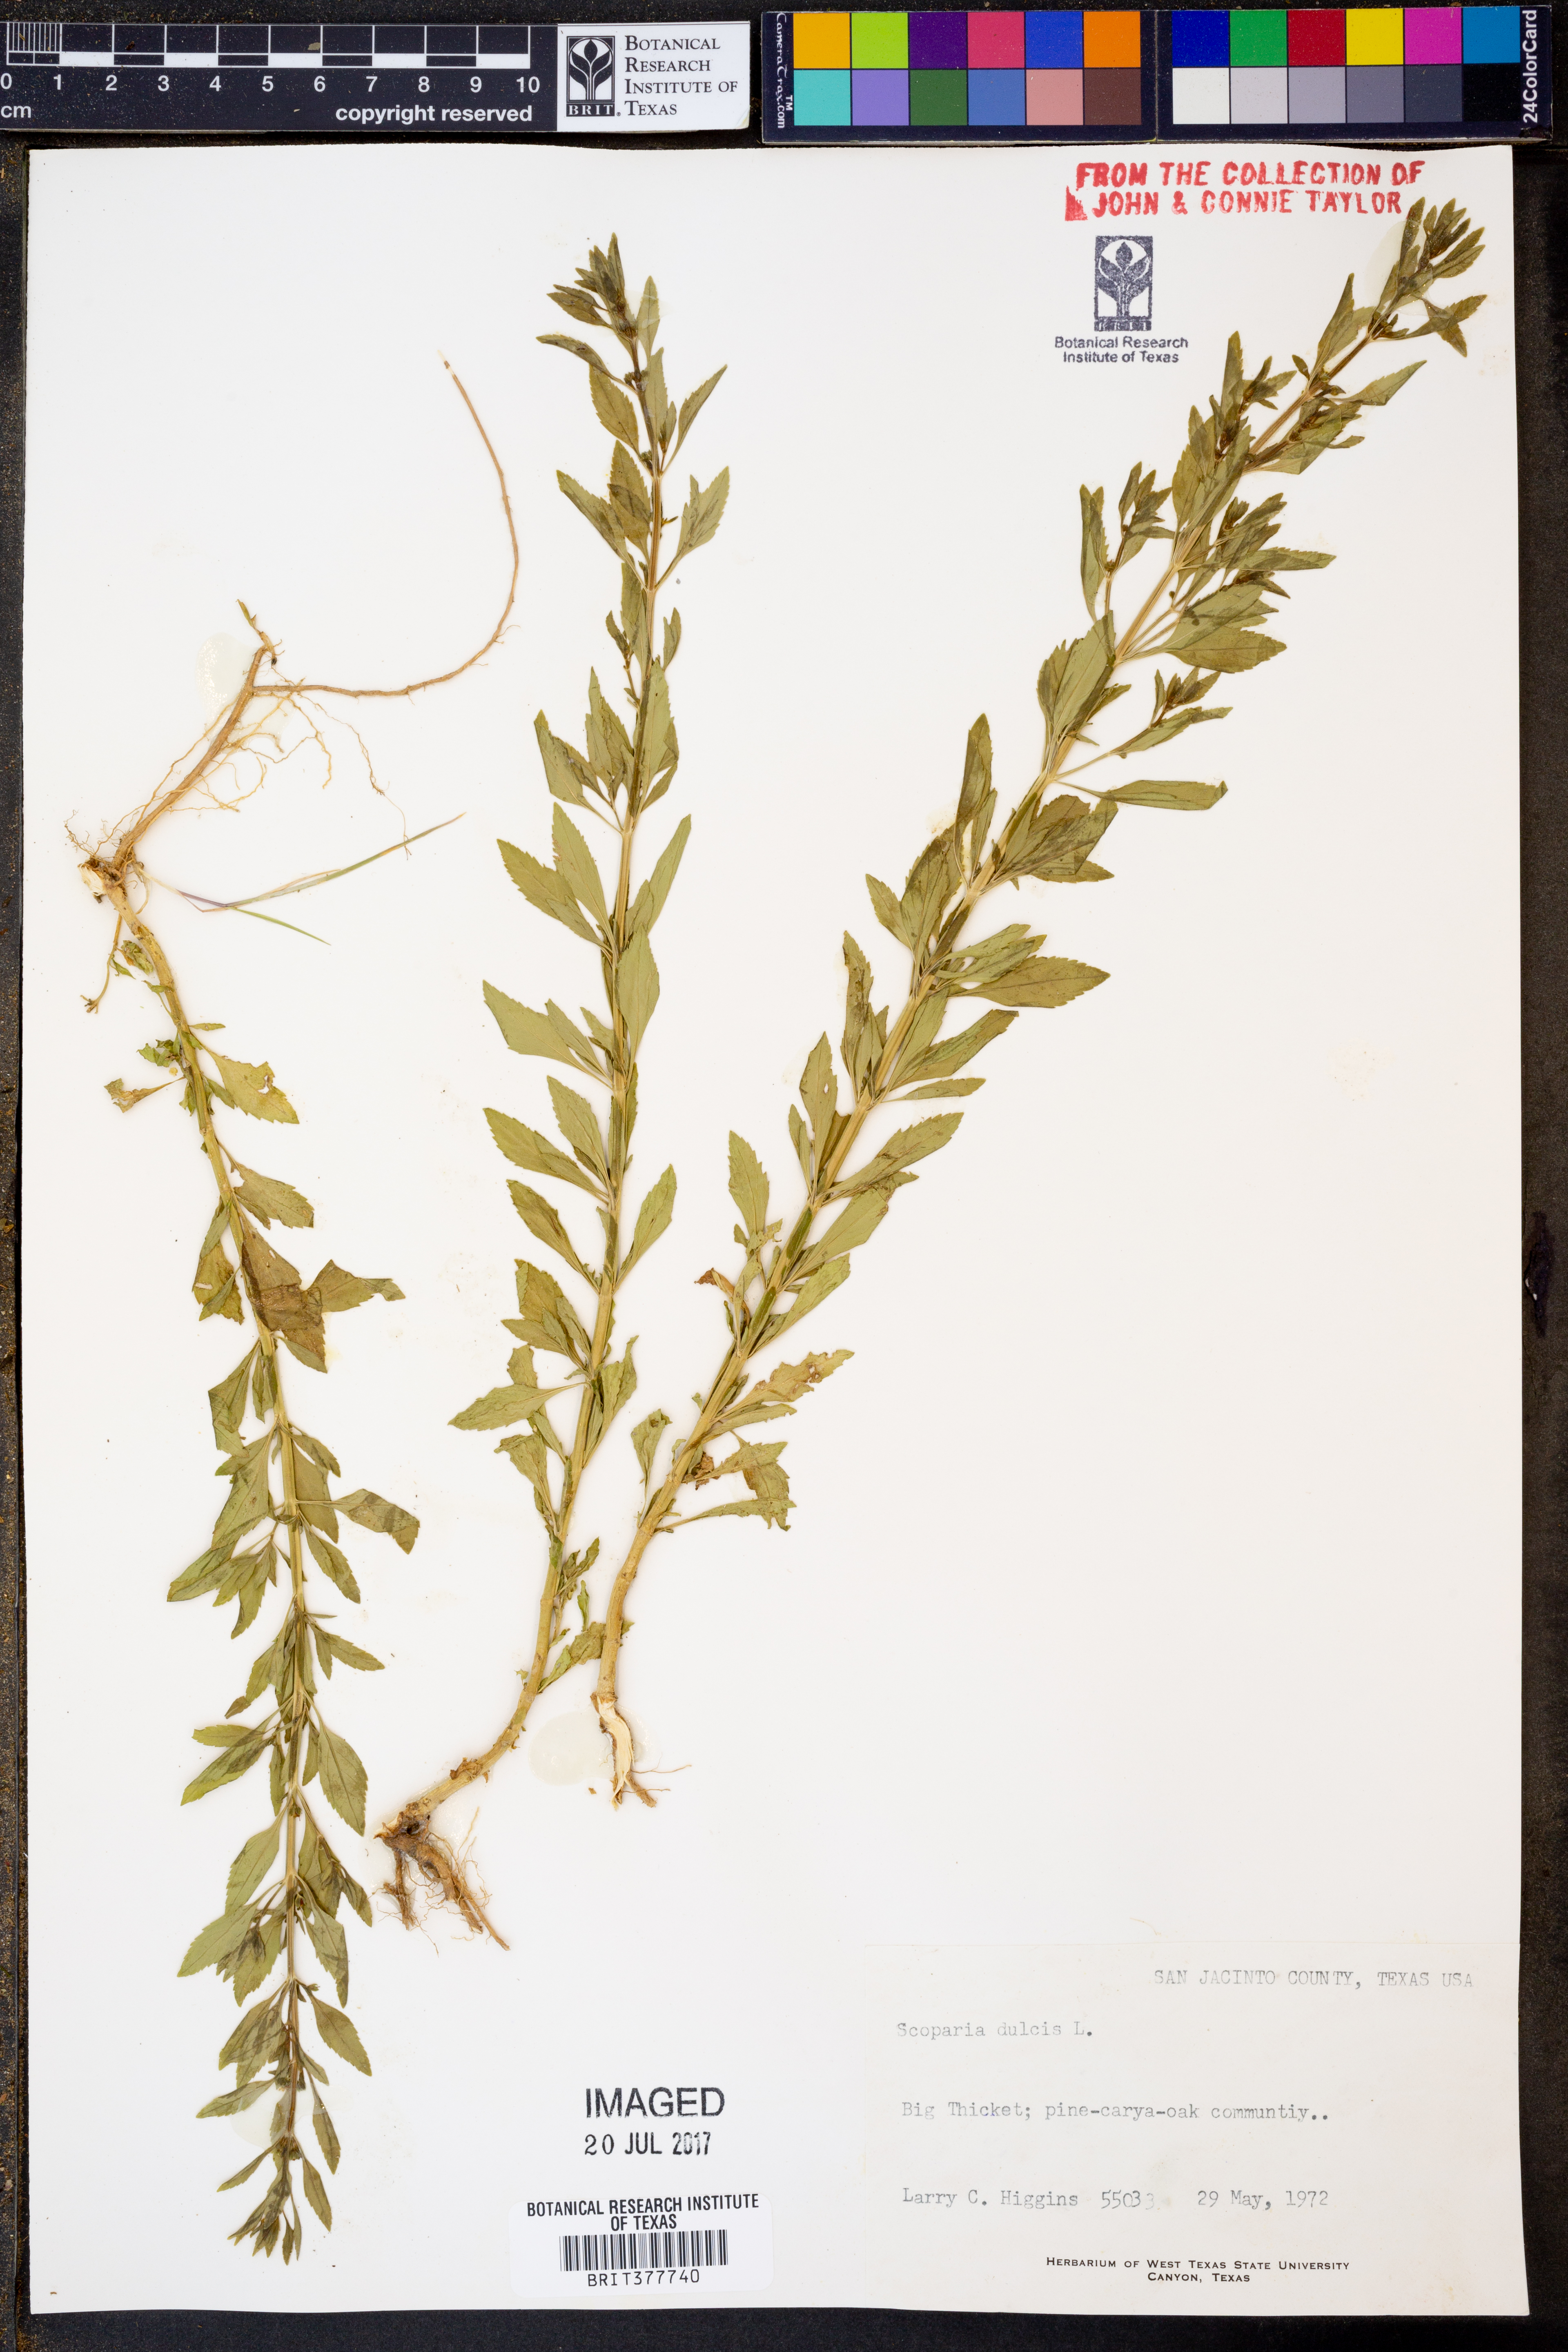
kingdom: Plantae
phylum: Tracheophyta
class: Magnoliopsida
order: Lamiales
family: Plantaginaceae
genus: Scoparia
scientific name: Scoparia dulcis
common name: Scoparia-weed
